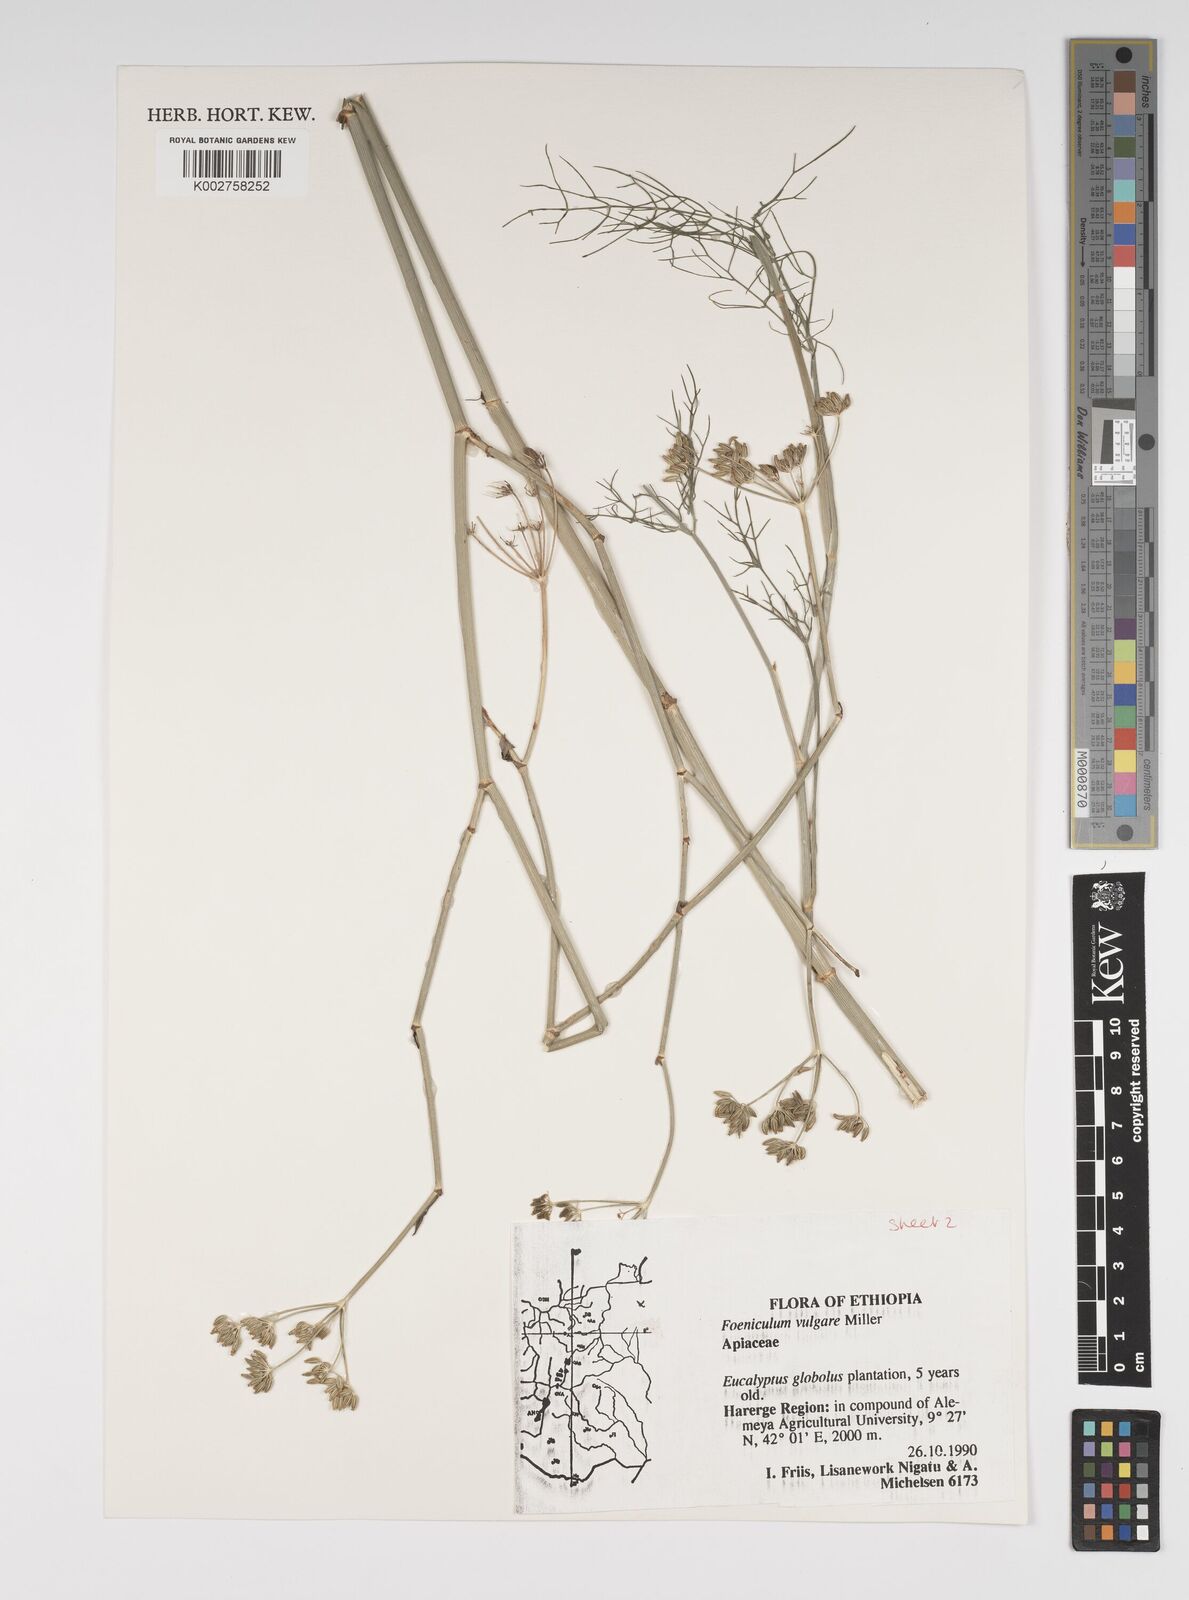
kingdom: Plantae
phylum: Tracheophyta
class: Magnoliopsida
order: Apiales
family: Apiaceae
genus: Foeniculum
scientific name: Foeniculum vulgare
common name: Fennel
